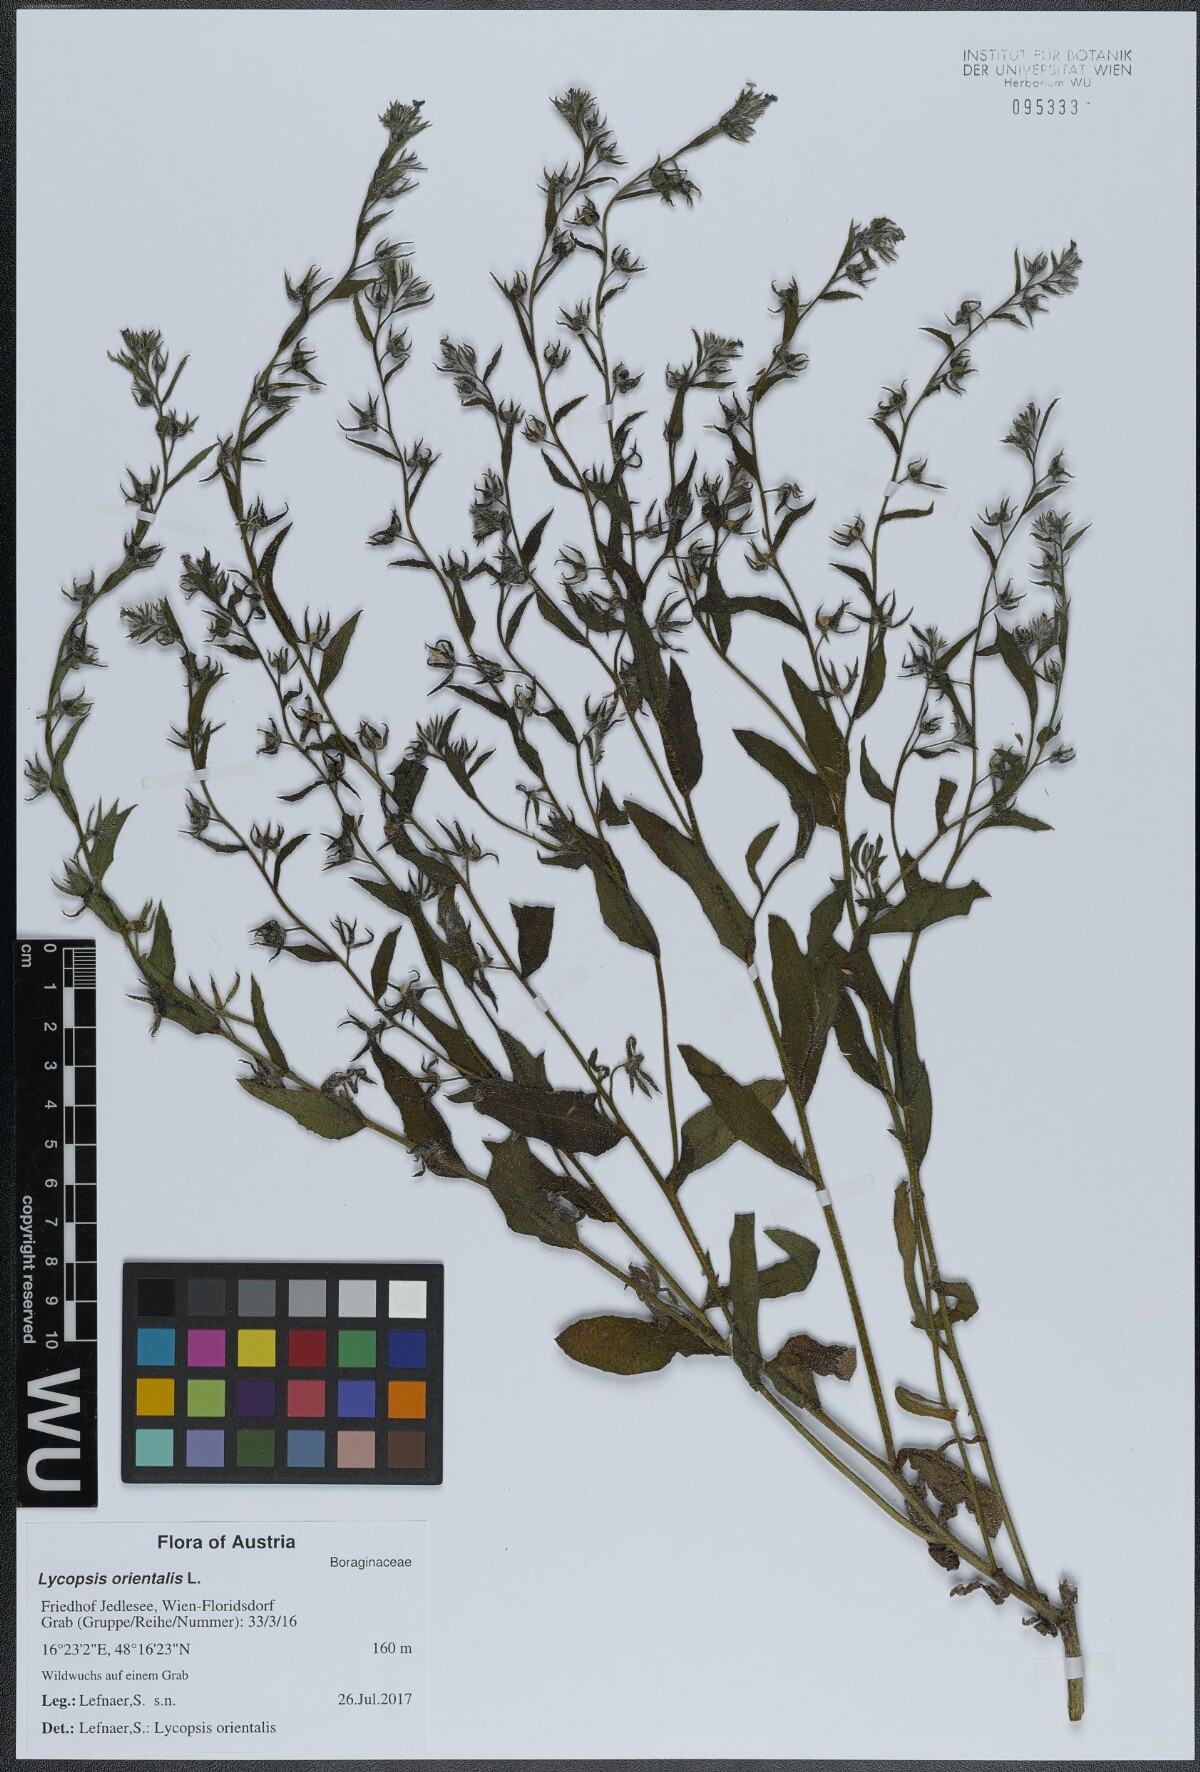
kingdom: Plantae
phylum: Tracheophyta
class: Magnoliopsida
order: Boraginales
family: Boraginaceae
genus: Lycopsis
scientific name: Lycopsis arvensis
